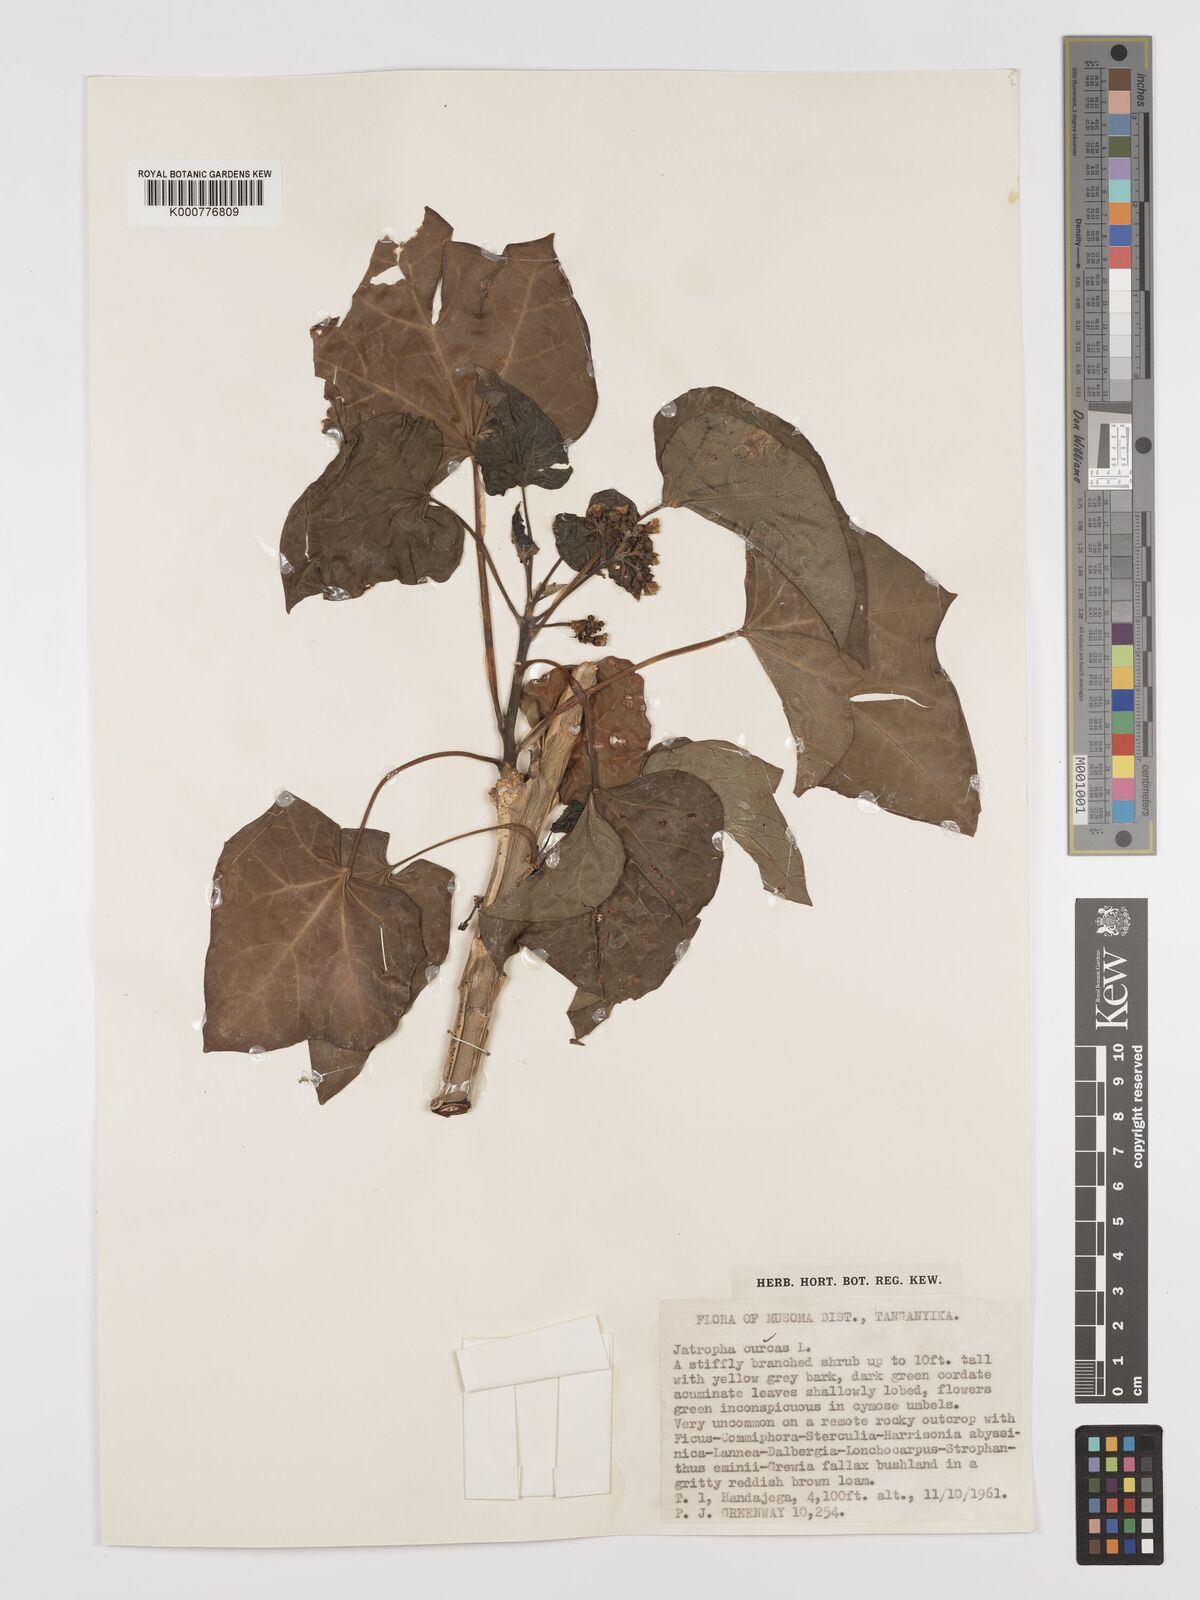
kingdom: Plantae
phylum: Tracheophyta
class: Magnoliopsida
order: Malpighiales
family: Euphorbiaceae
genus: Jatropha
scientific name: Jatropha curcas
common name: Barbados nut
